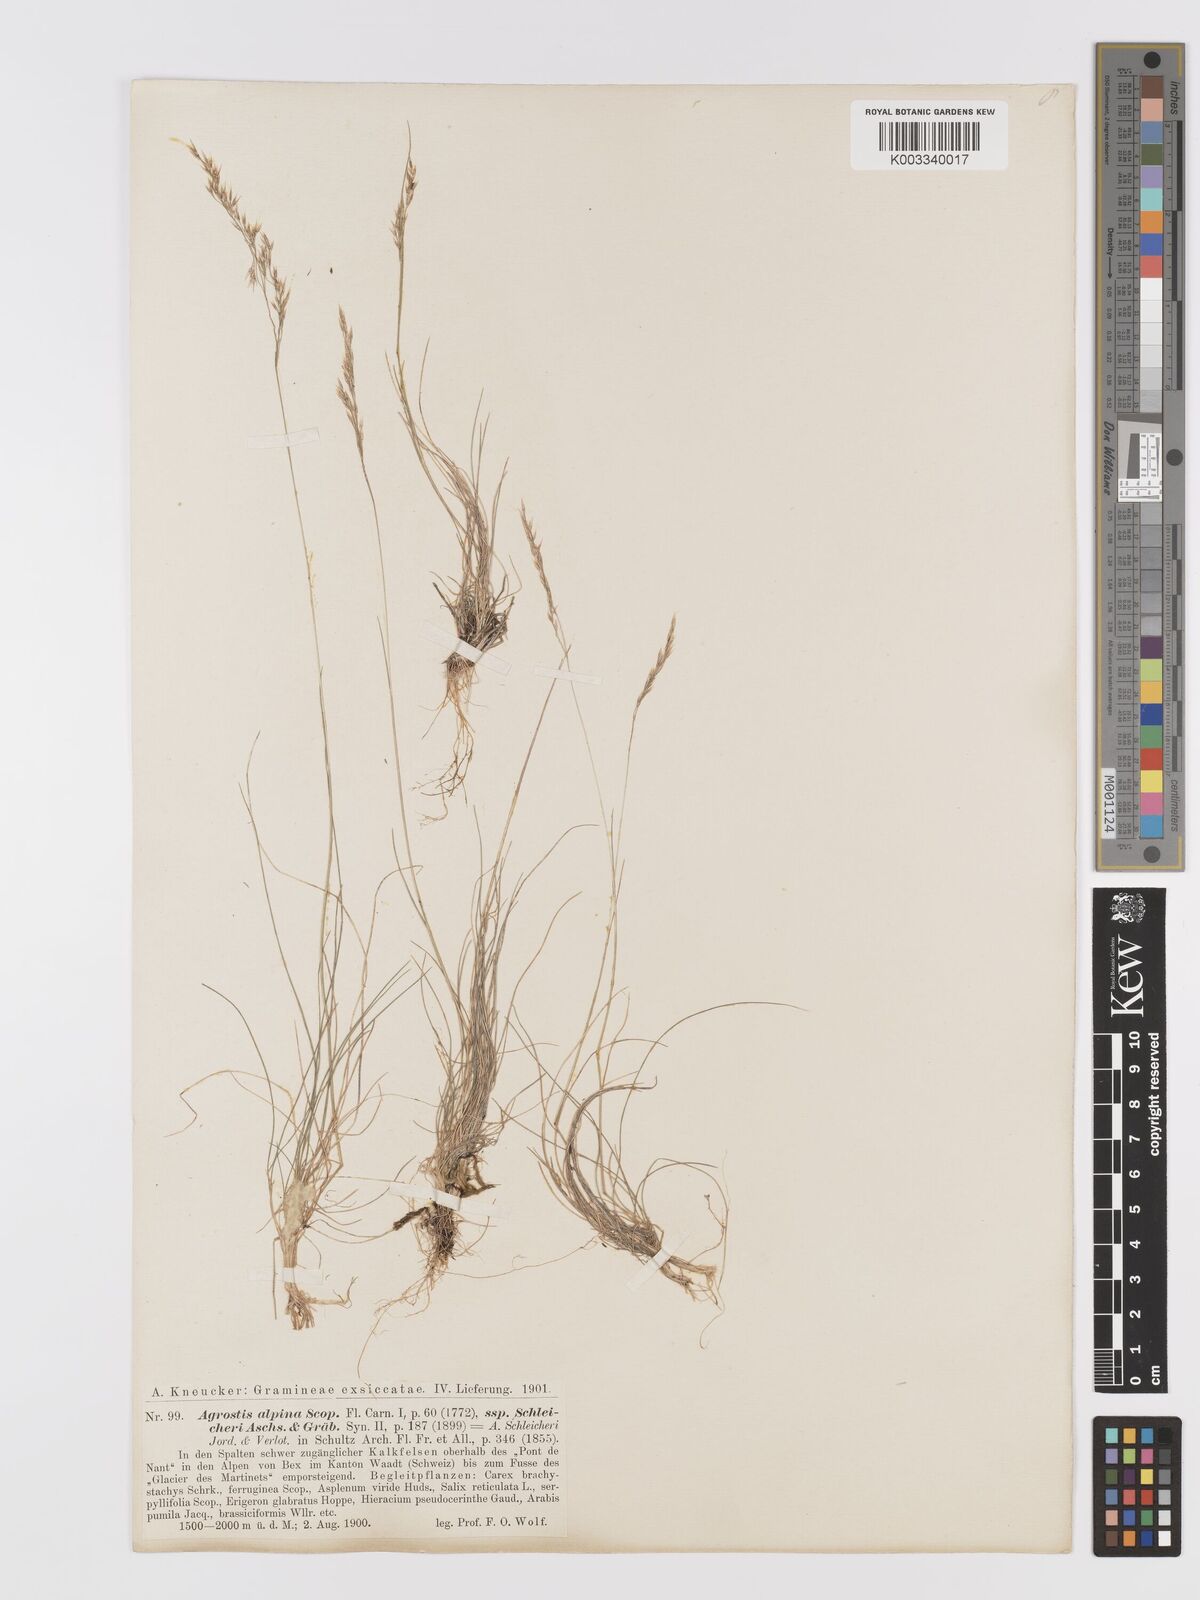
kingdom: Plantae
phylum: Tracheophyta
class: Liliopsida
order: Poales
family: Poaceae
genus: Alpagrostis
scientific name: Alpagrostis schleicheri
